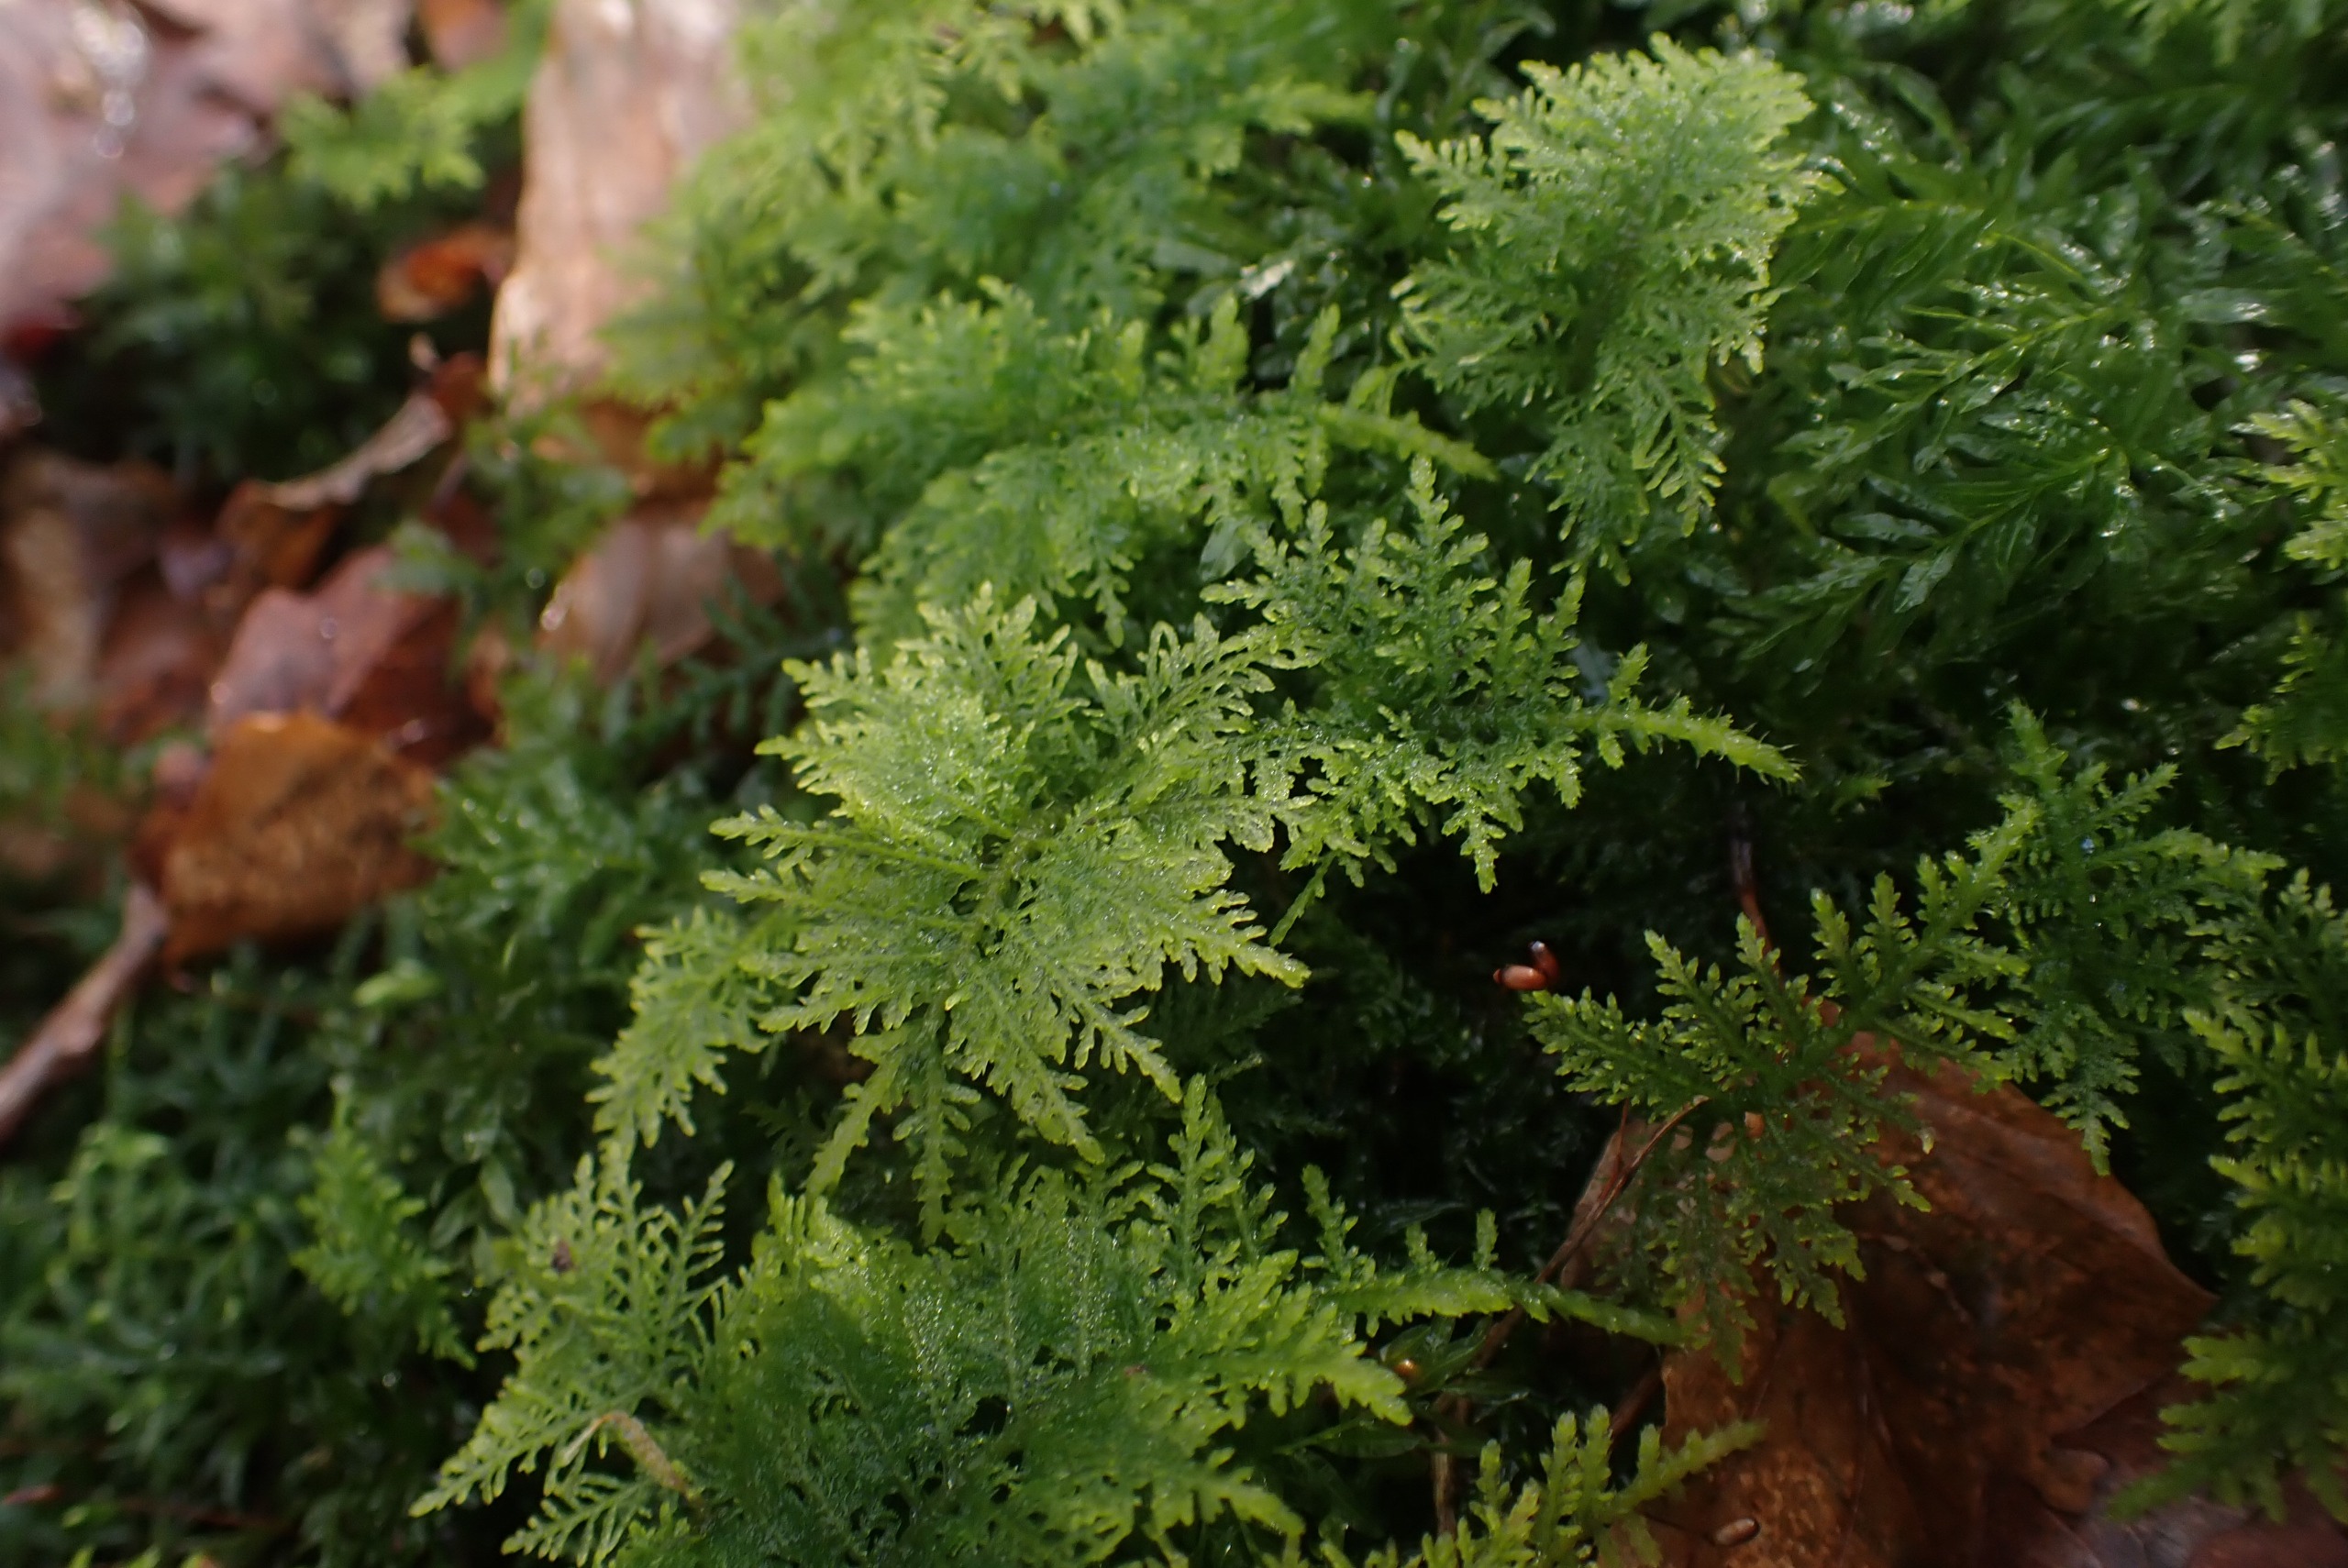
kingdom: Plantae
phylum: Bryophyta
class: Bryopsida
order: Hypnales
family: Thuidiaceae
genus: Thuidium
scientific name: Thuidium tamariscinum
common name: Pryd-bregnemos
